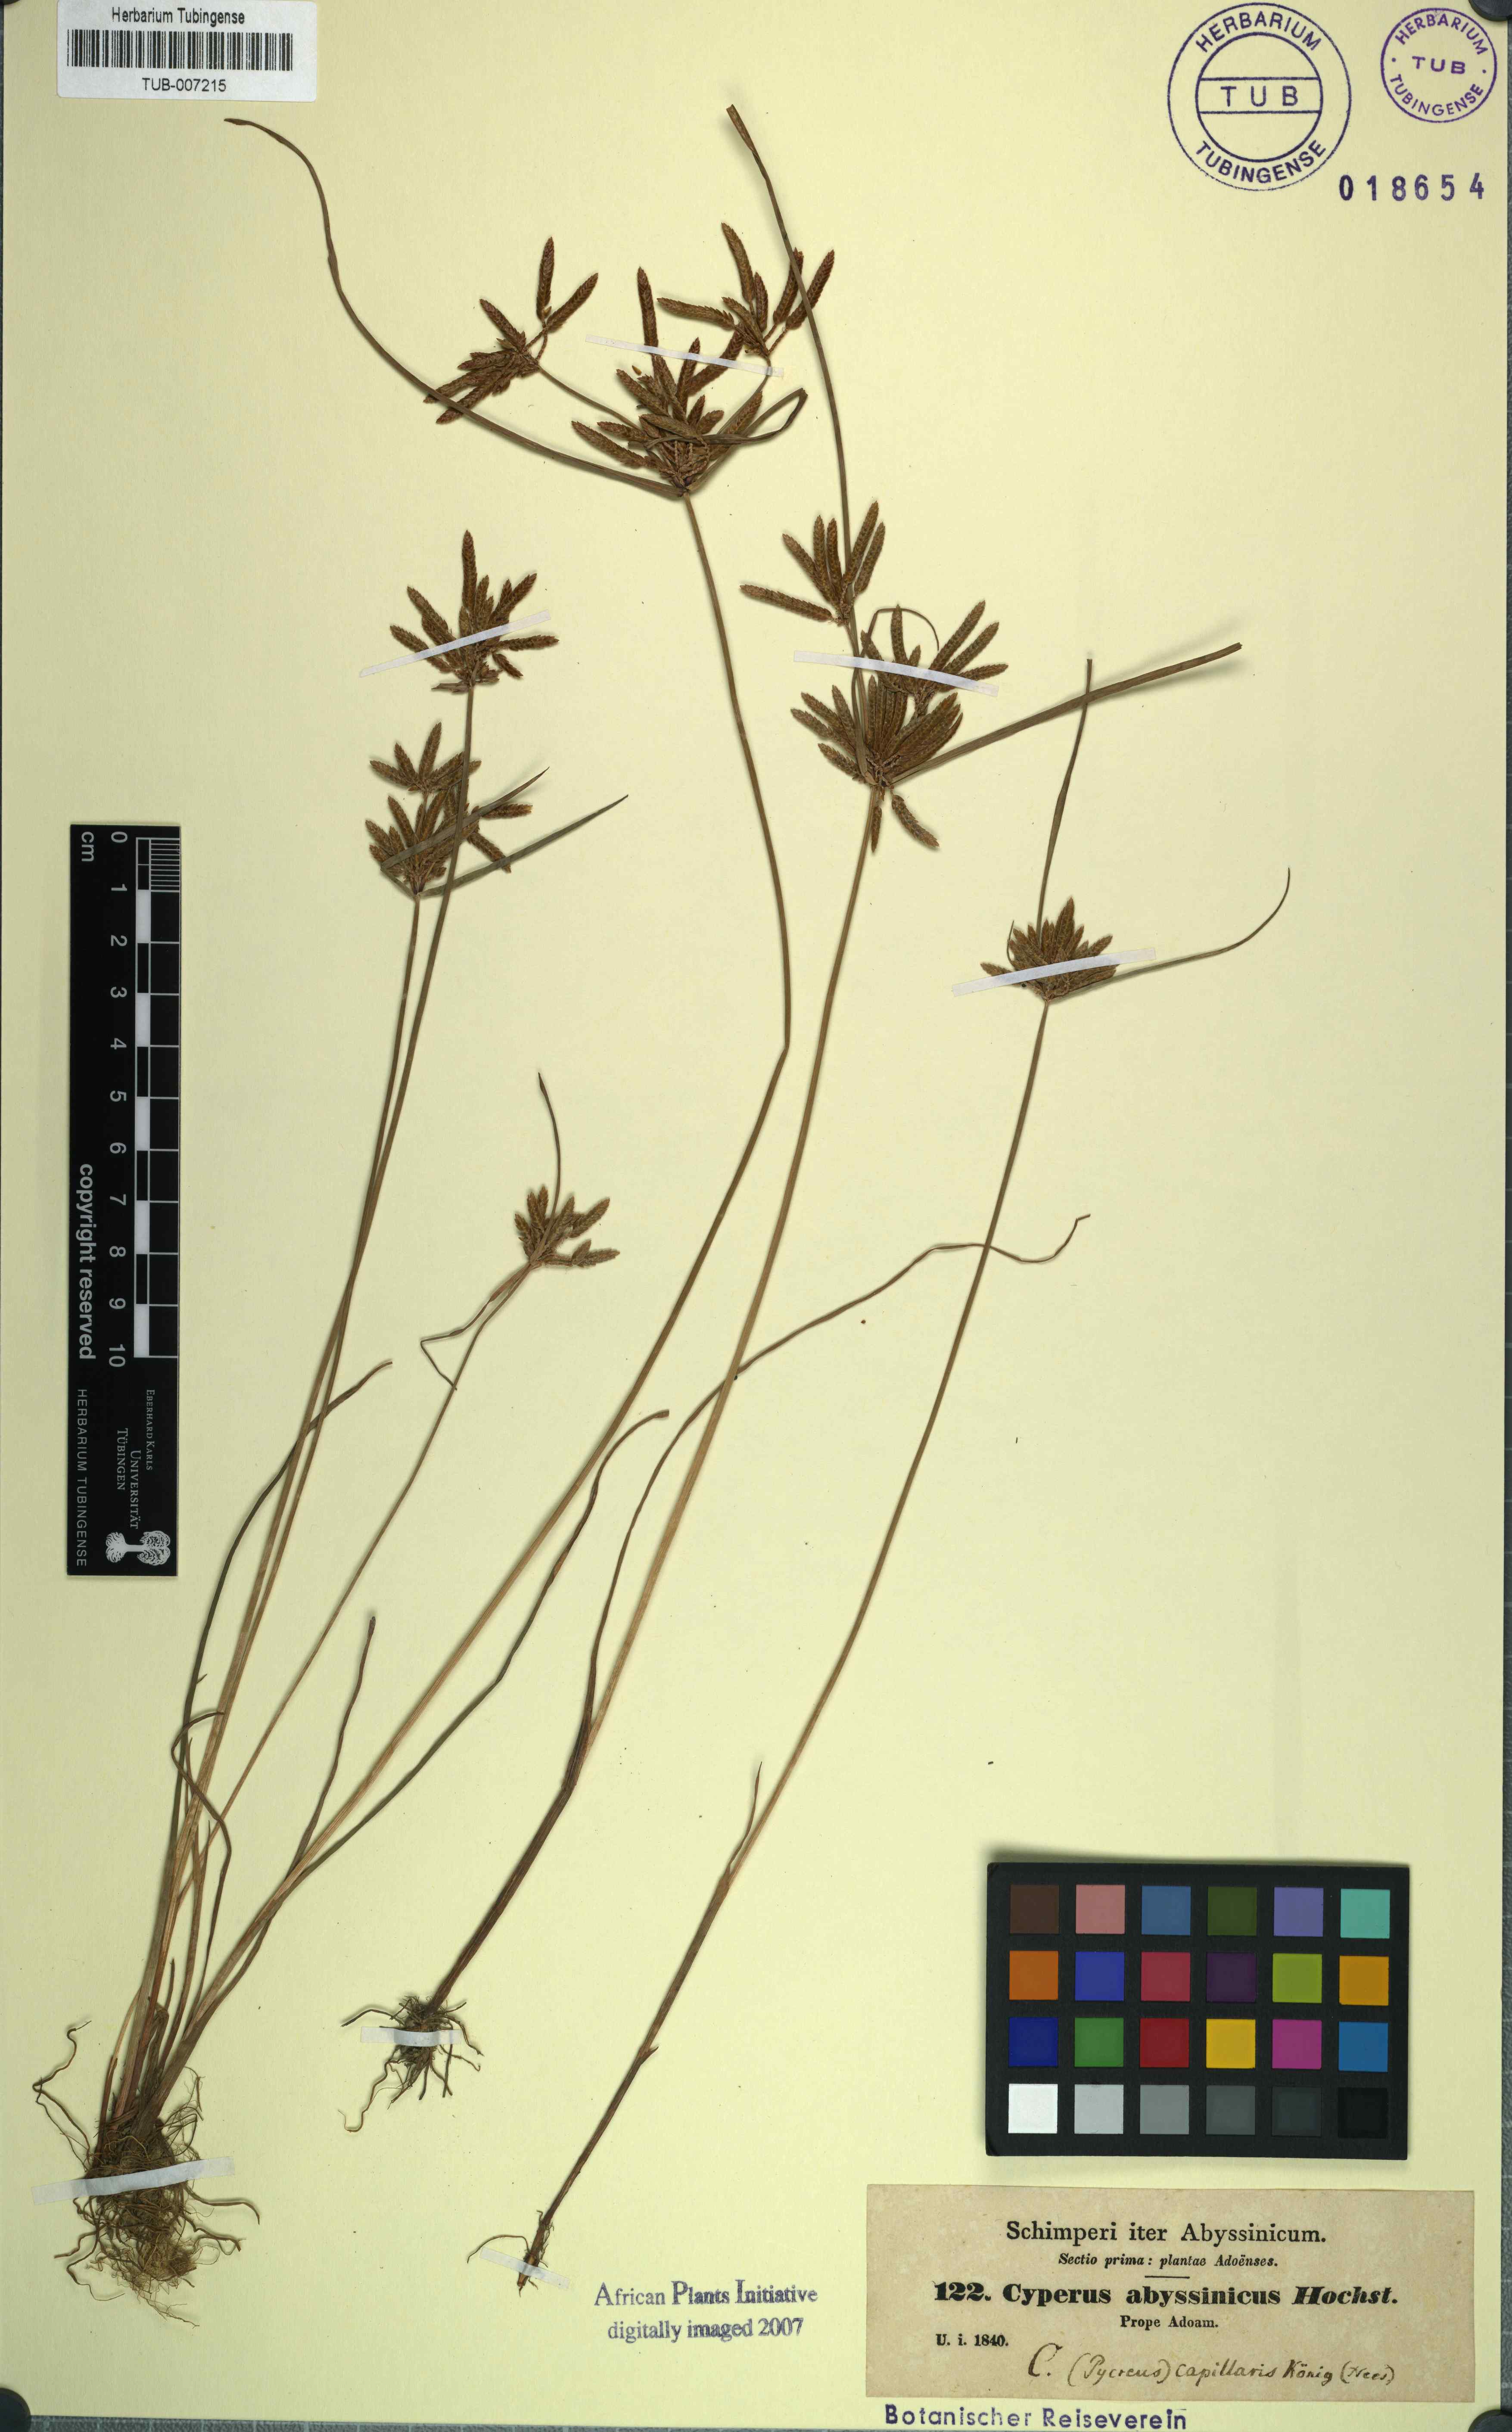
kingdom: Plantae
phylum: Tracheophyta
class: Liliopsida
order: Poales
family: Cyperaceae
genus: Cyperus
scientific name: Cyperus flavescens
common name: Yellow galingale
